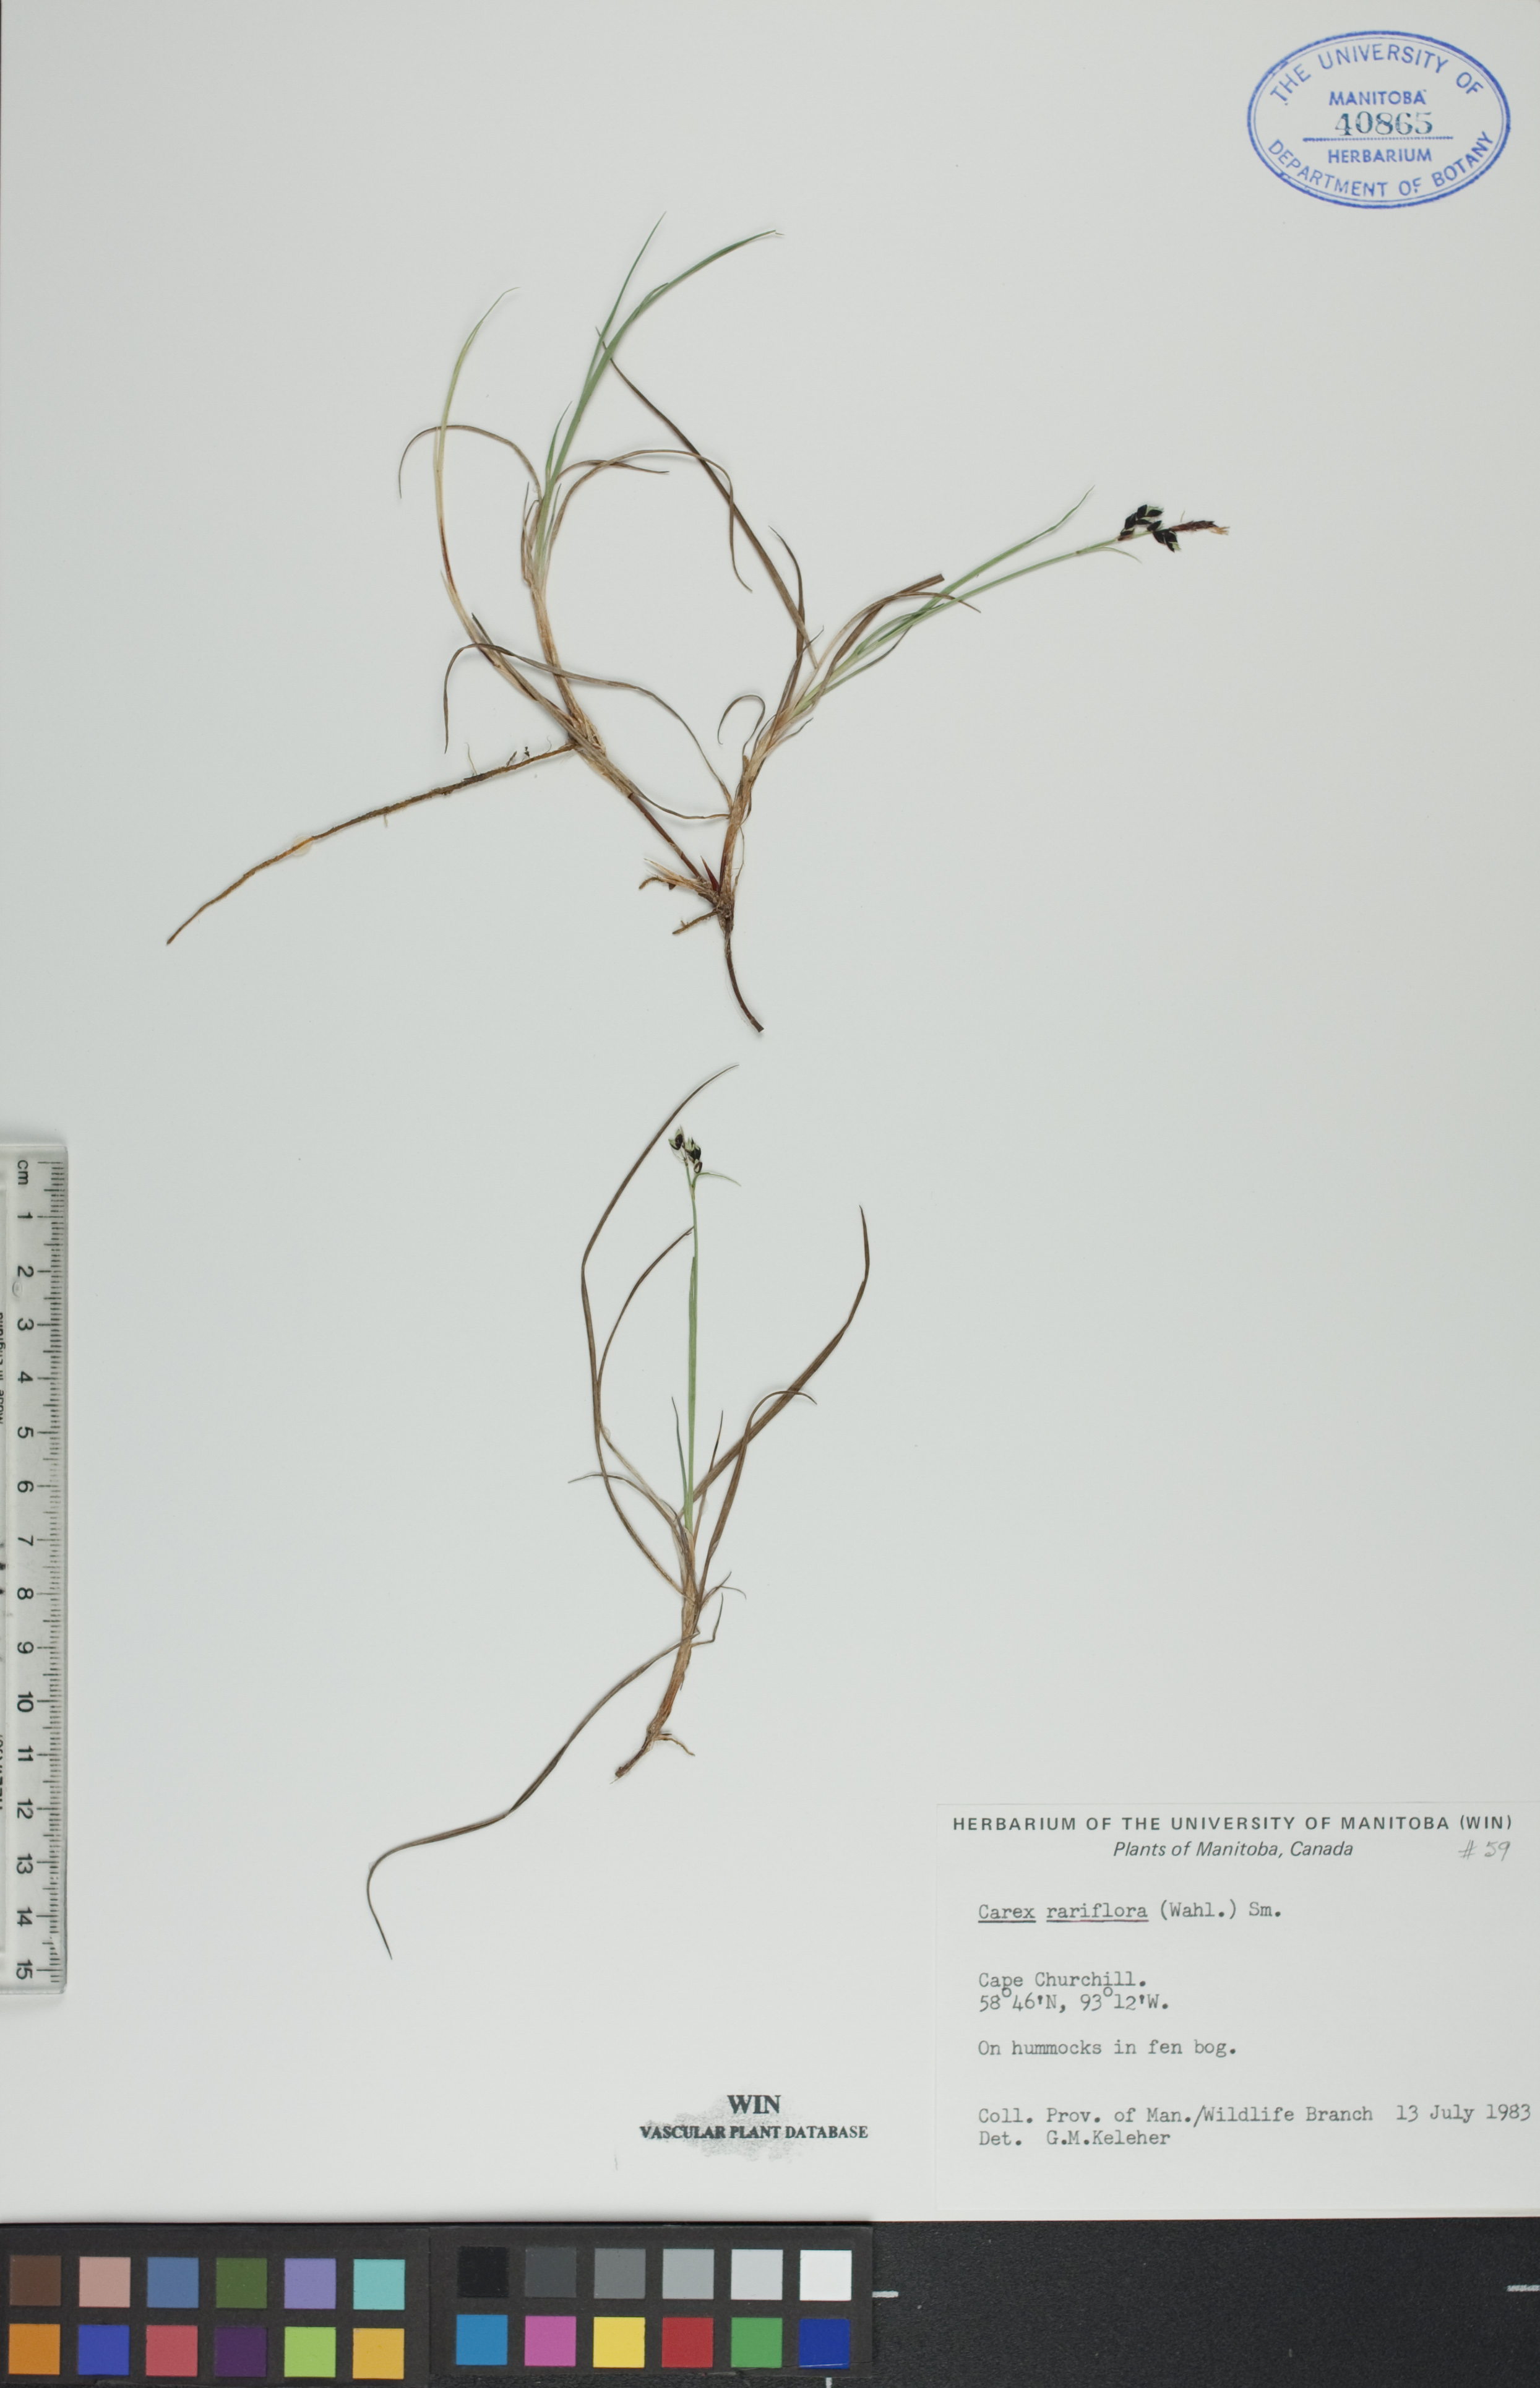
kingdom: Plantae
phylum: Tracheophyta
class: Liliopsida
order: Poales
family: Cyperaceae
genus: Carex
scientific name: Carex rariflora
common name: Loose-flowered alpine sedge
